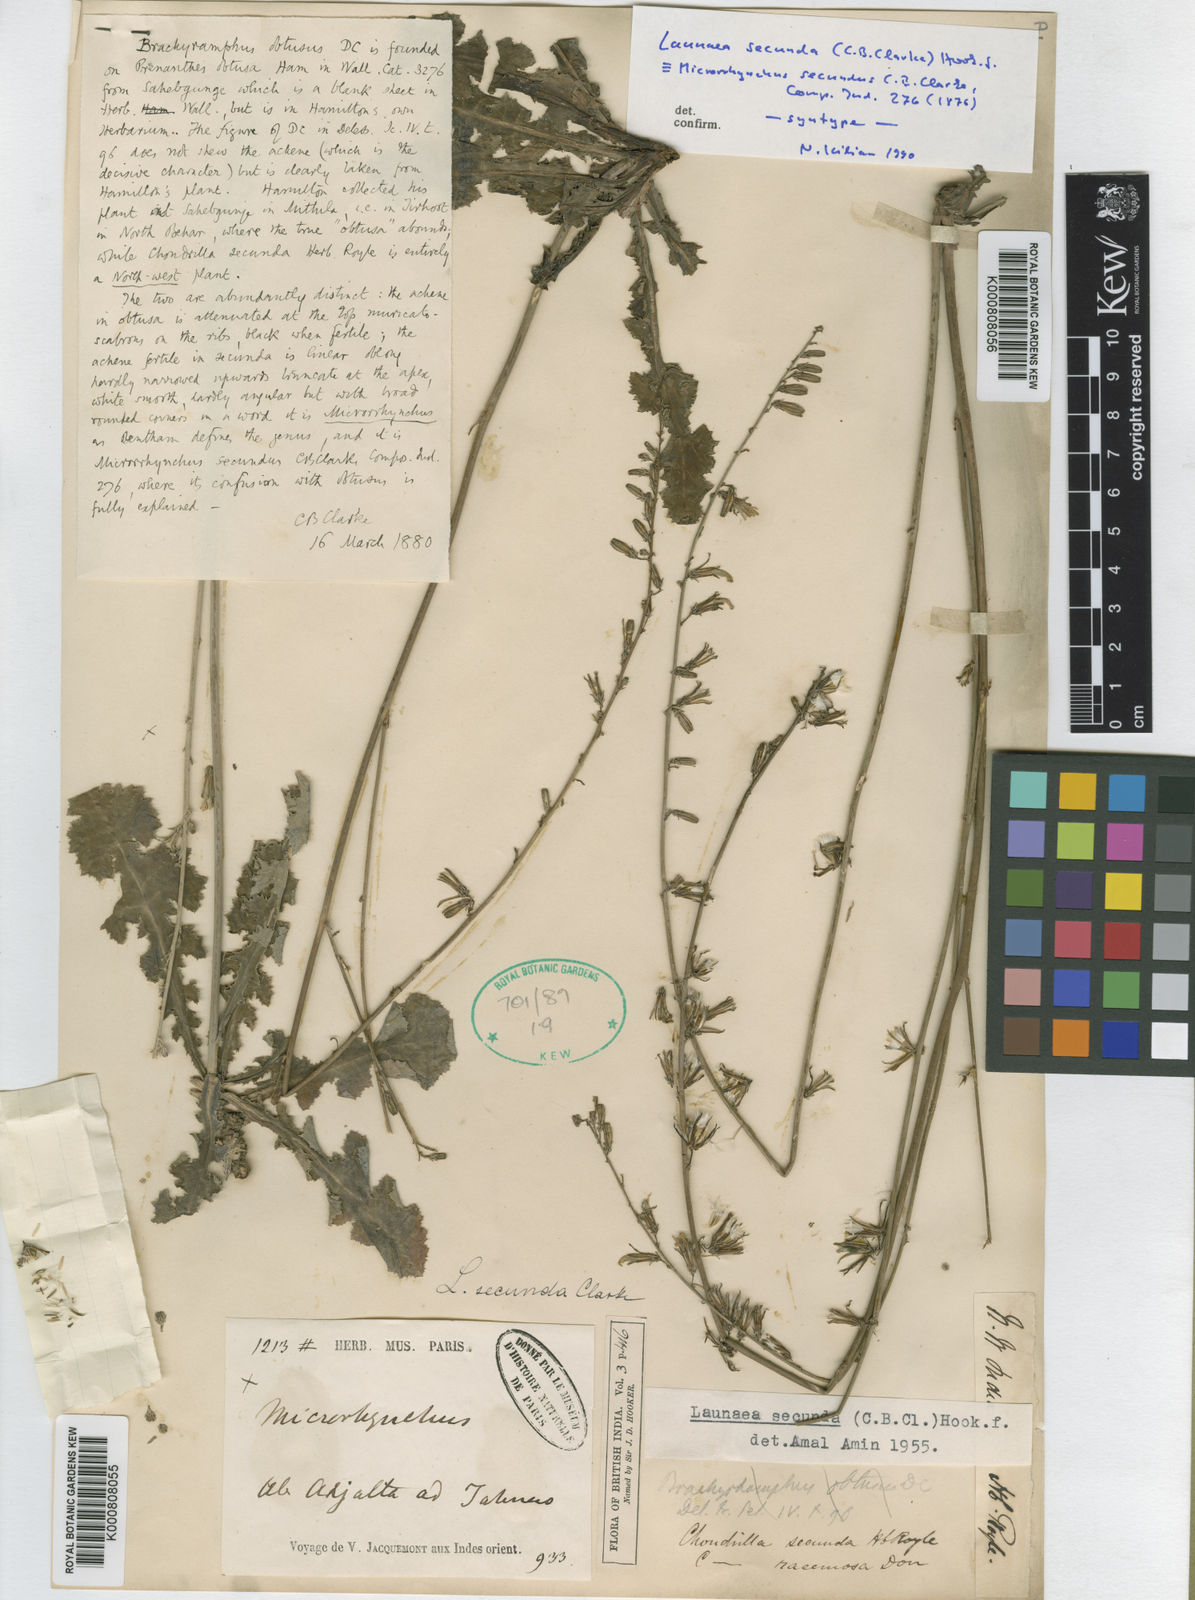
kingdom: Plantae
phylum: Tracheophyta
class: Magnoliopsida
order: Asterales
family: Asteraceae
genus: Launaea
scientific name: Launaea secunda
